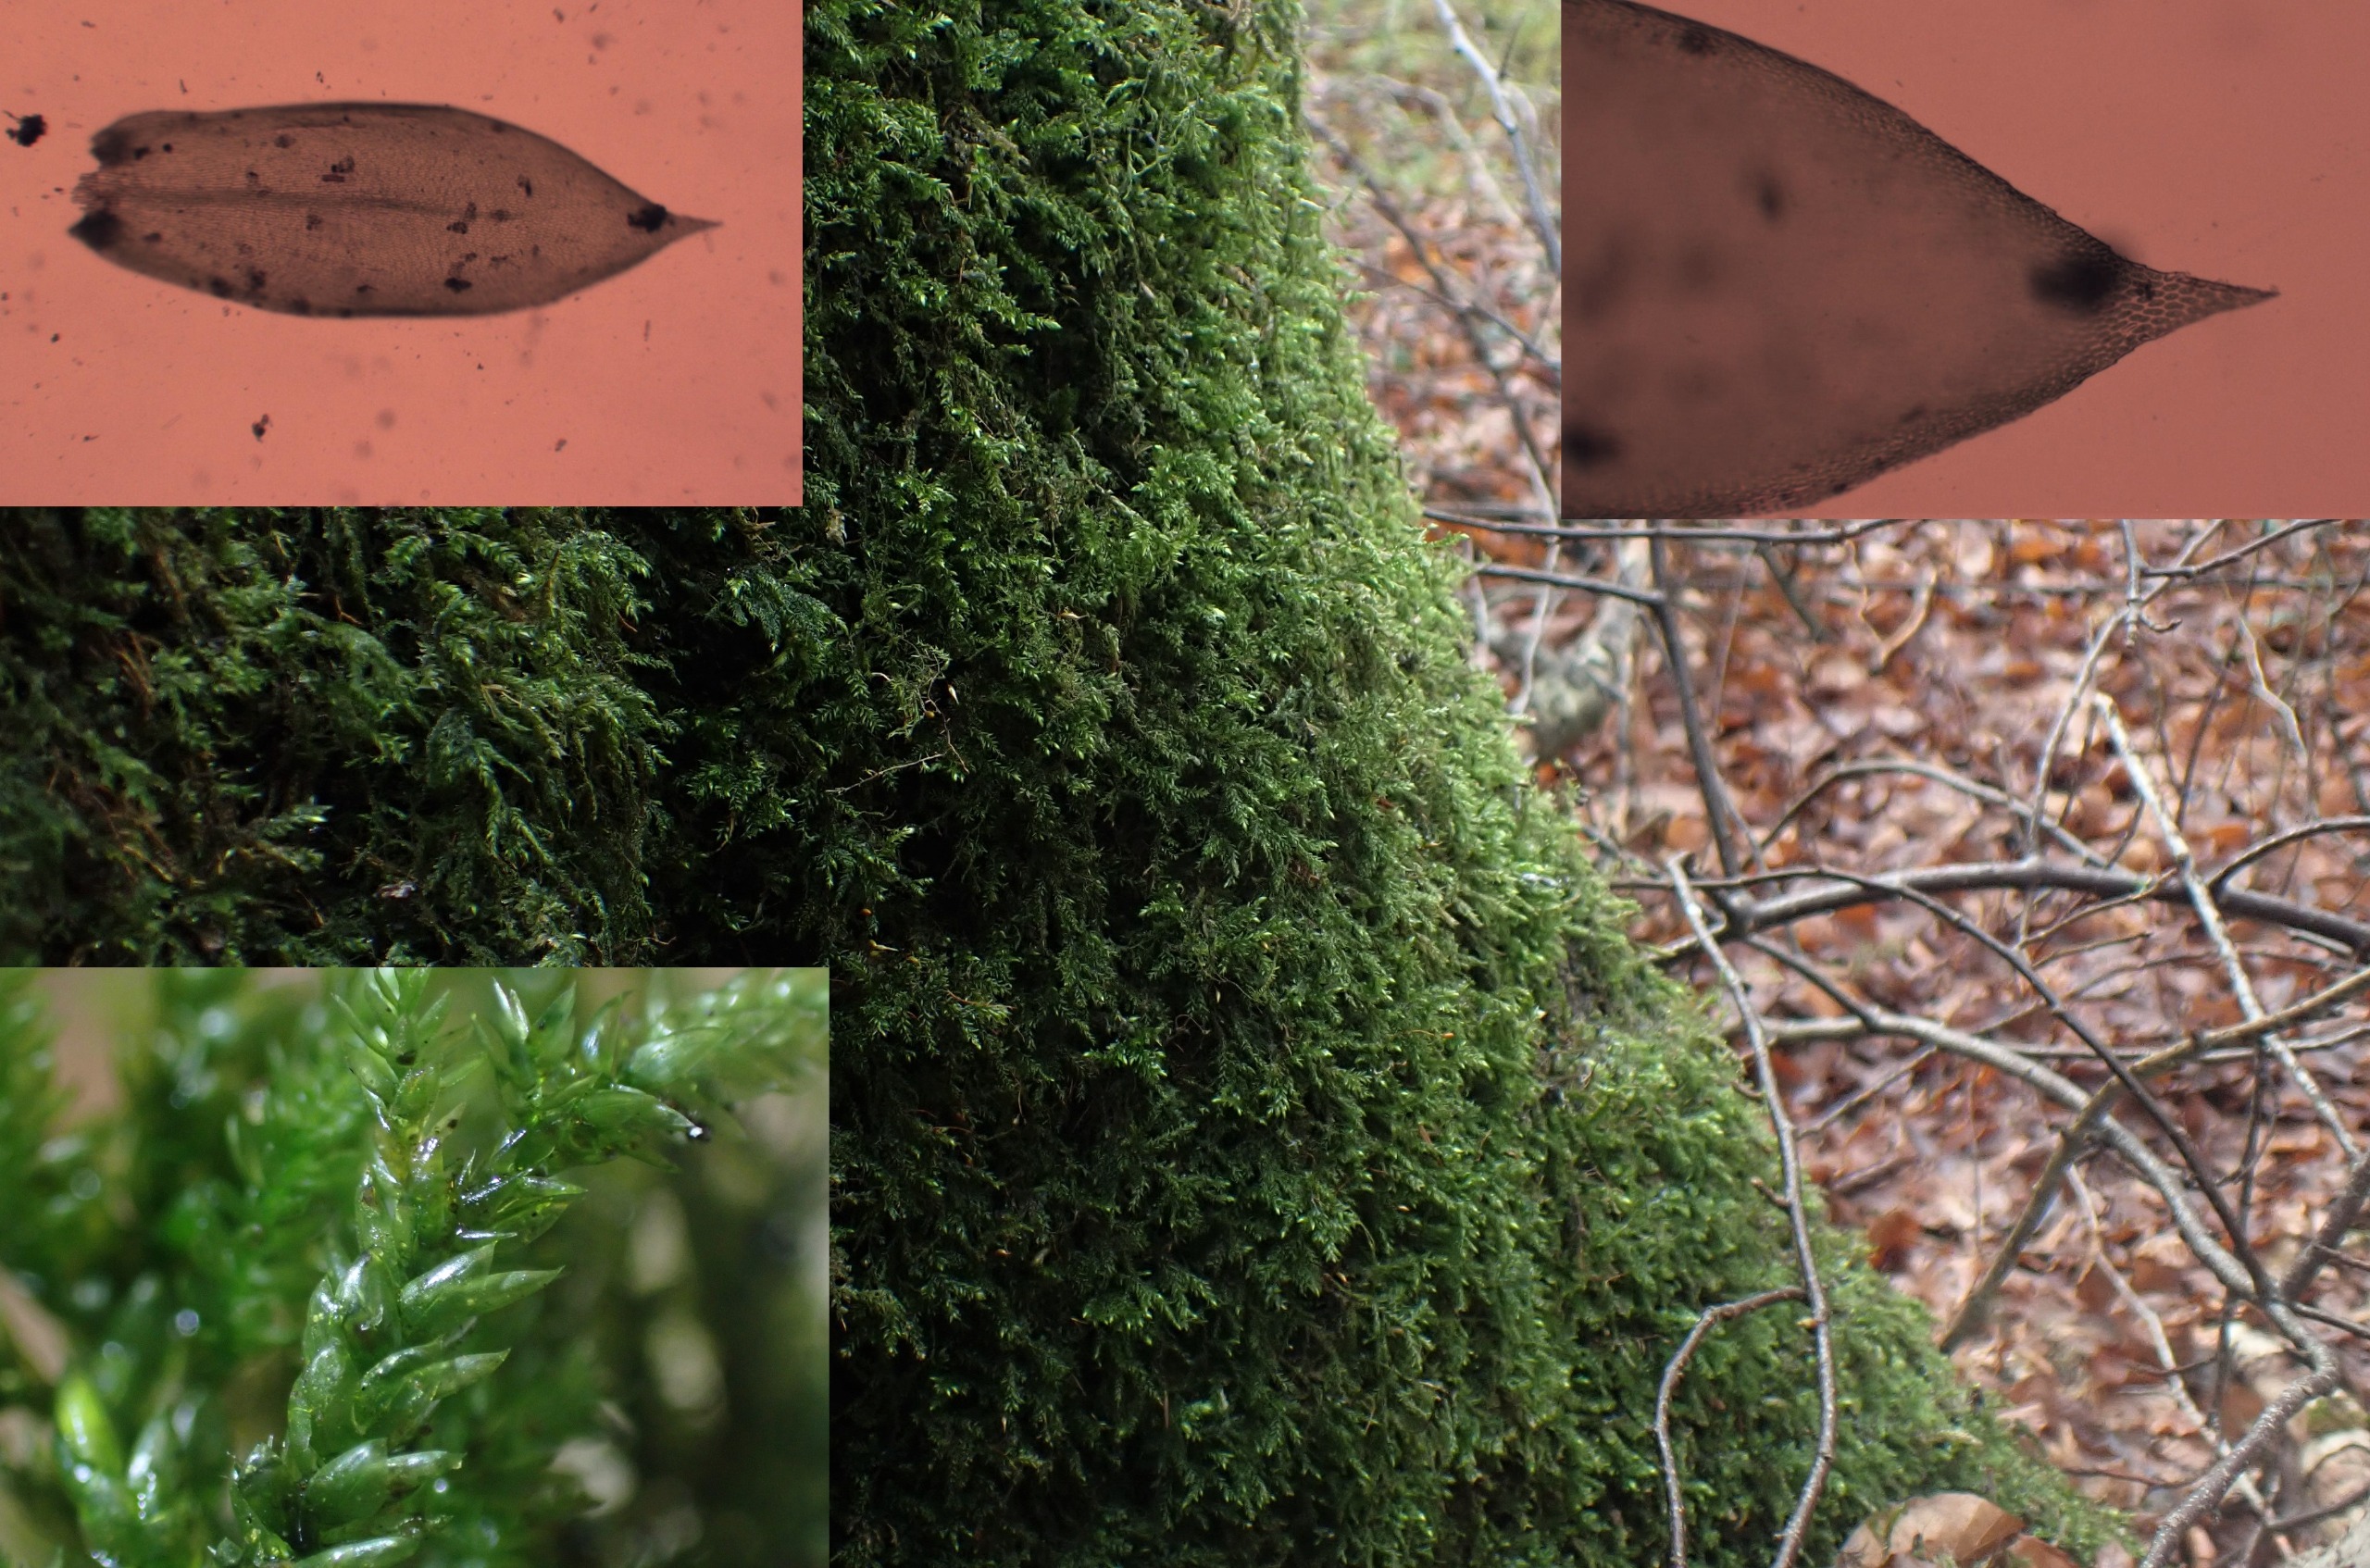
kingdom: Plantae
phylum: Bryophyta
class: Bryopsida
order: Hypnales
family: Lembophyllaceae
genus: Isothecium
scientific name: Isothecium alopecuroides
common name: Stor stammemos
